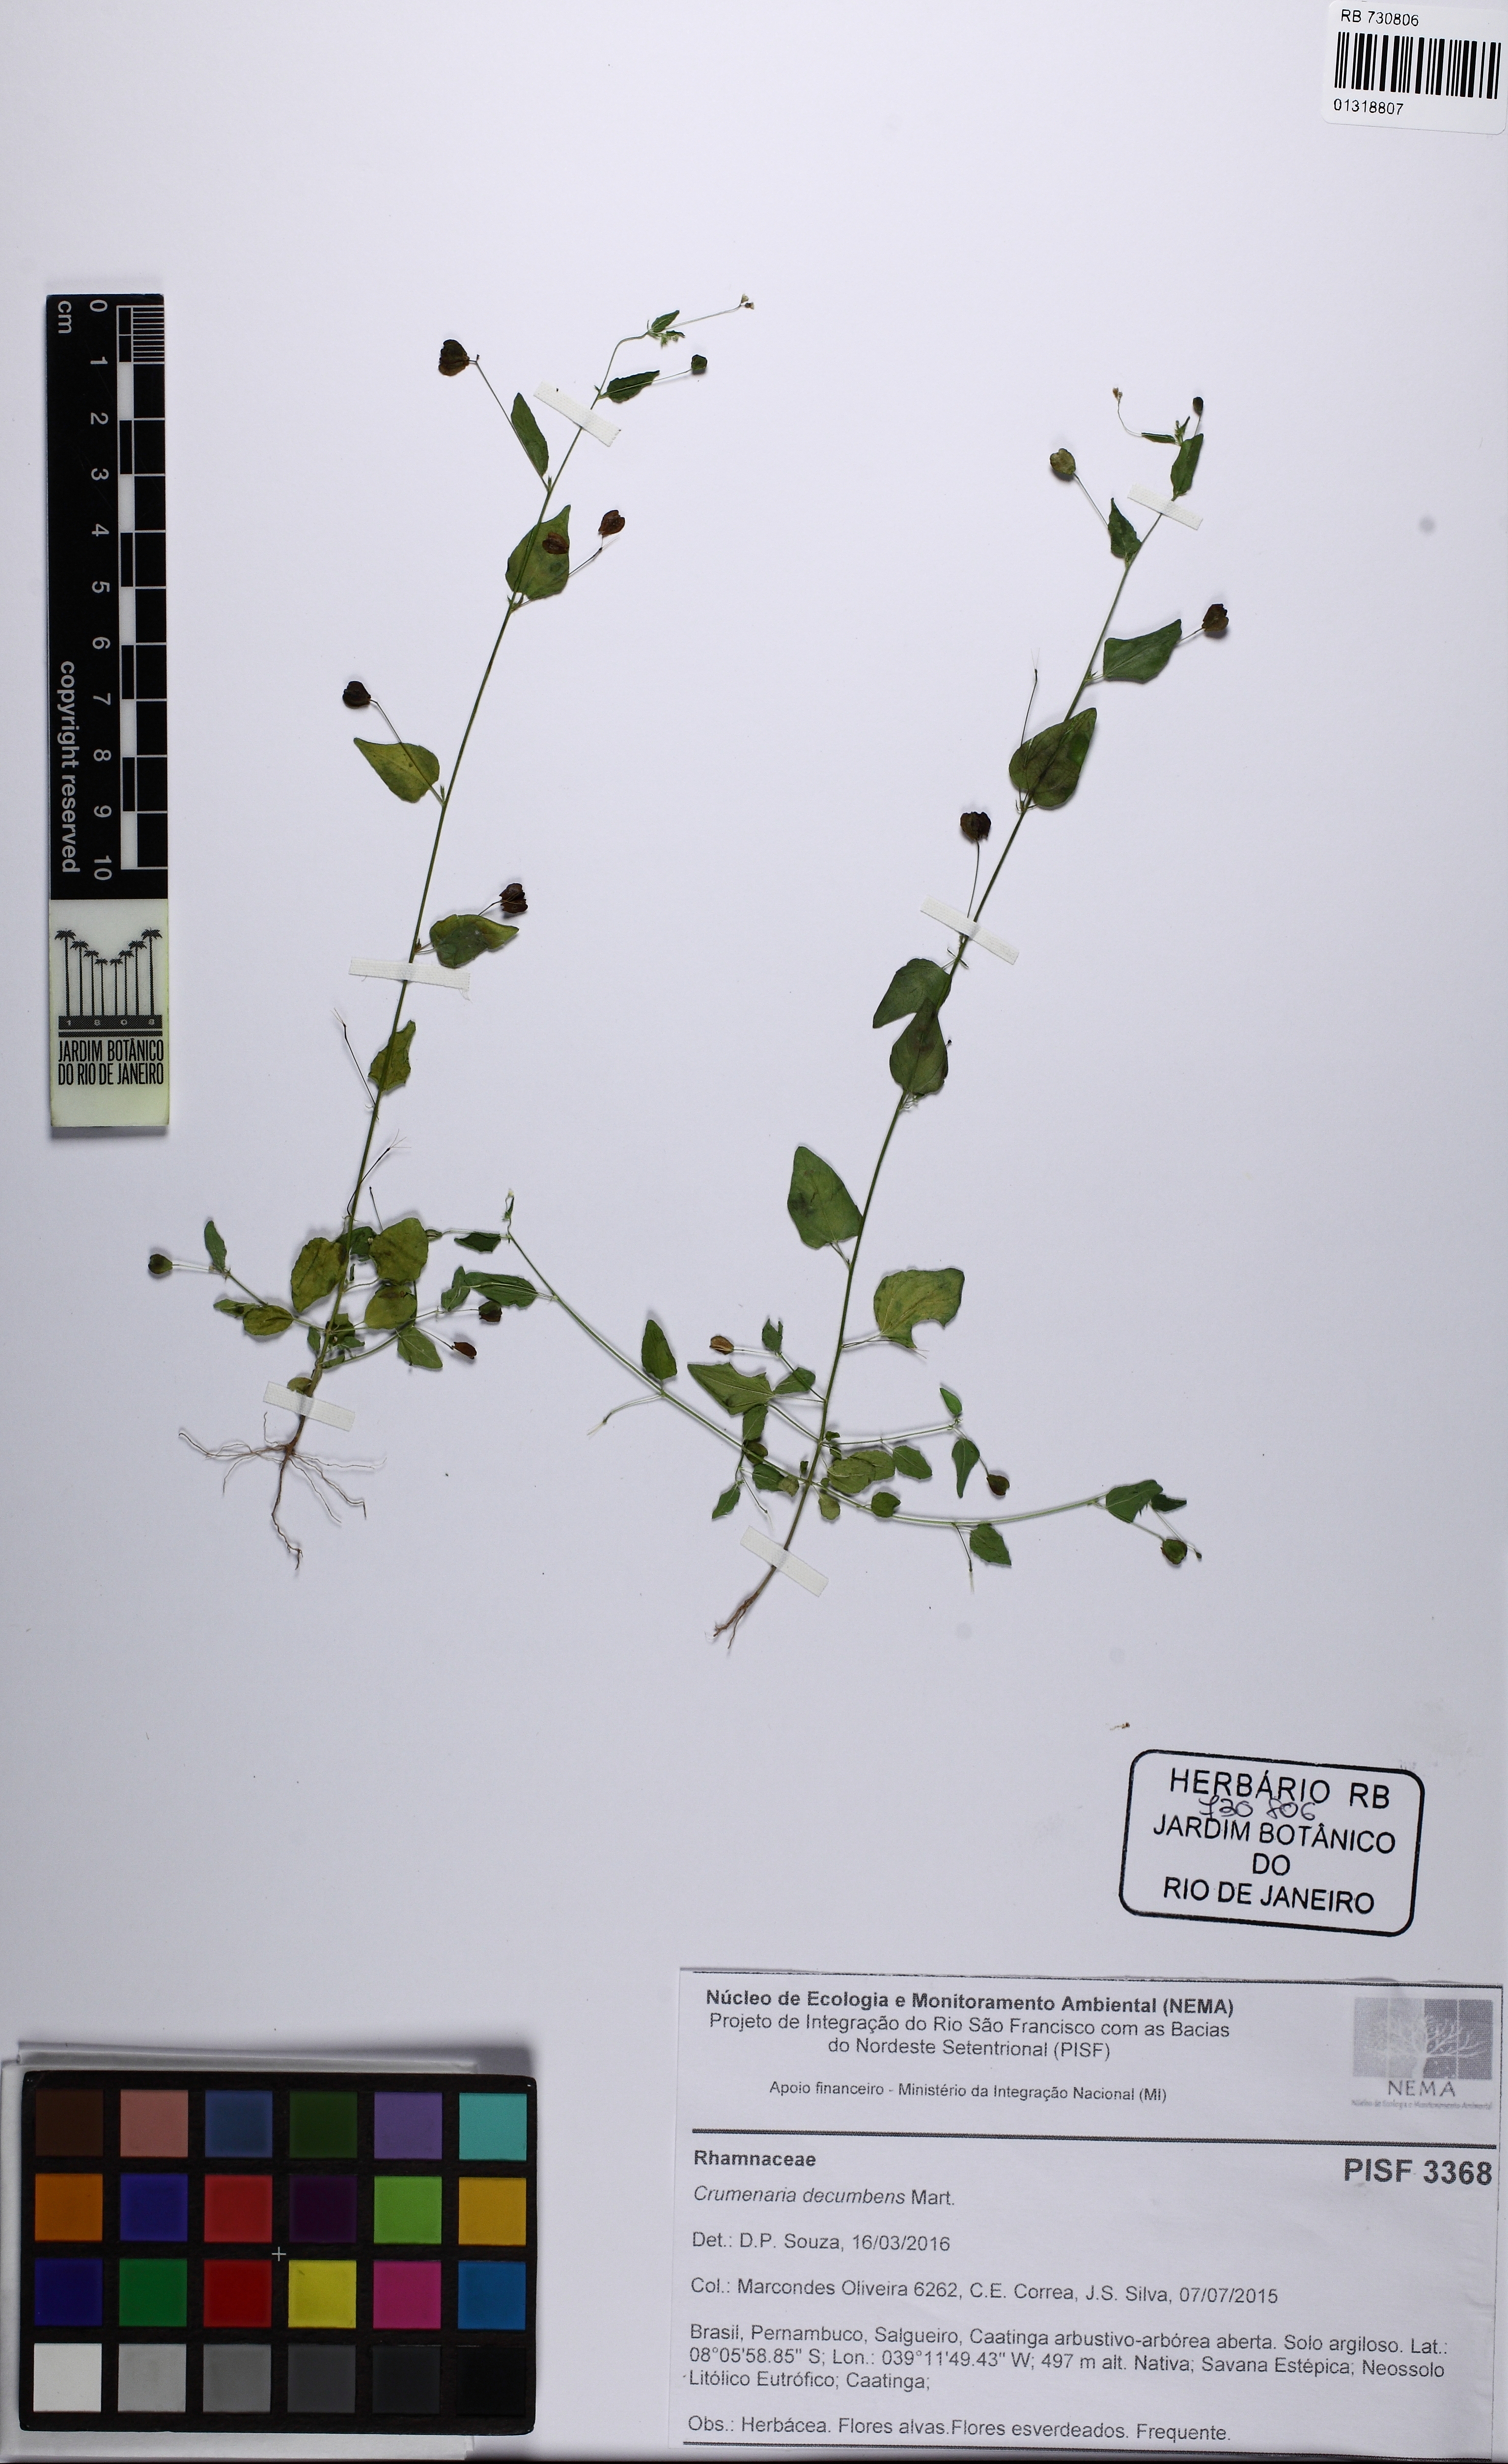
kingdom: Plantae
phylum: Tracheophyta
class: Magnoliopsida
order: Rosales
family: Rhamnaceae
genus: Crumenaria
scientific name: Crumenaria decumbens
